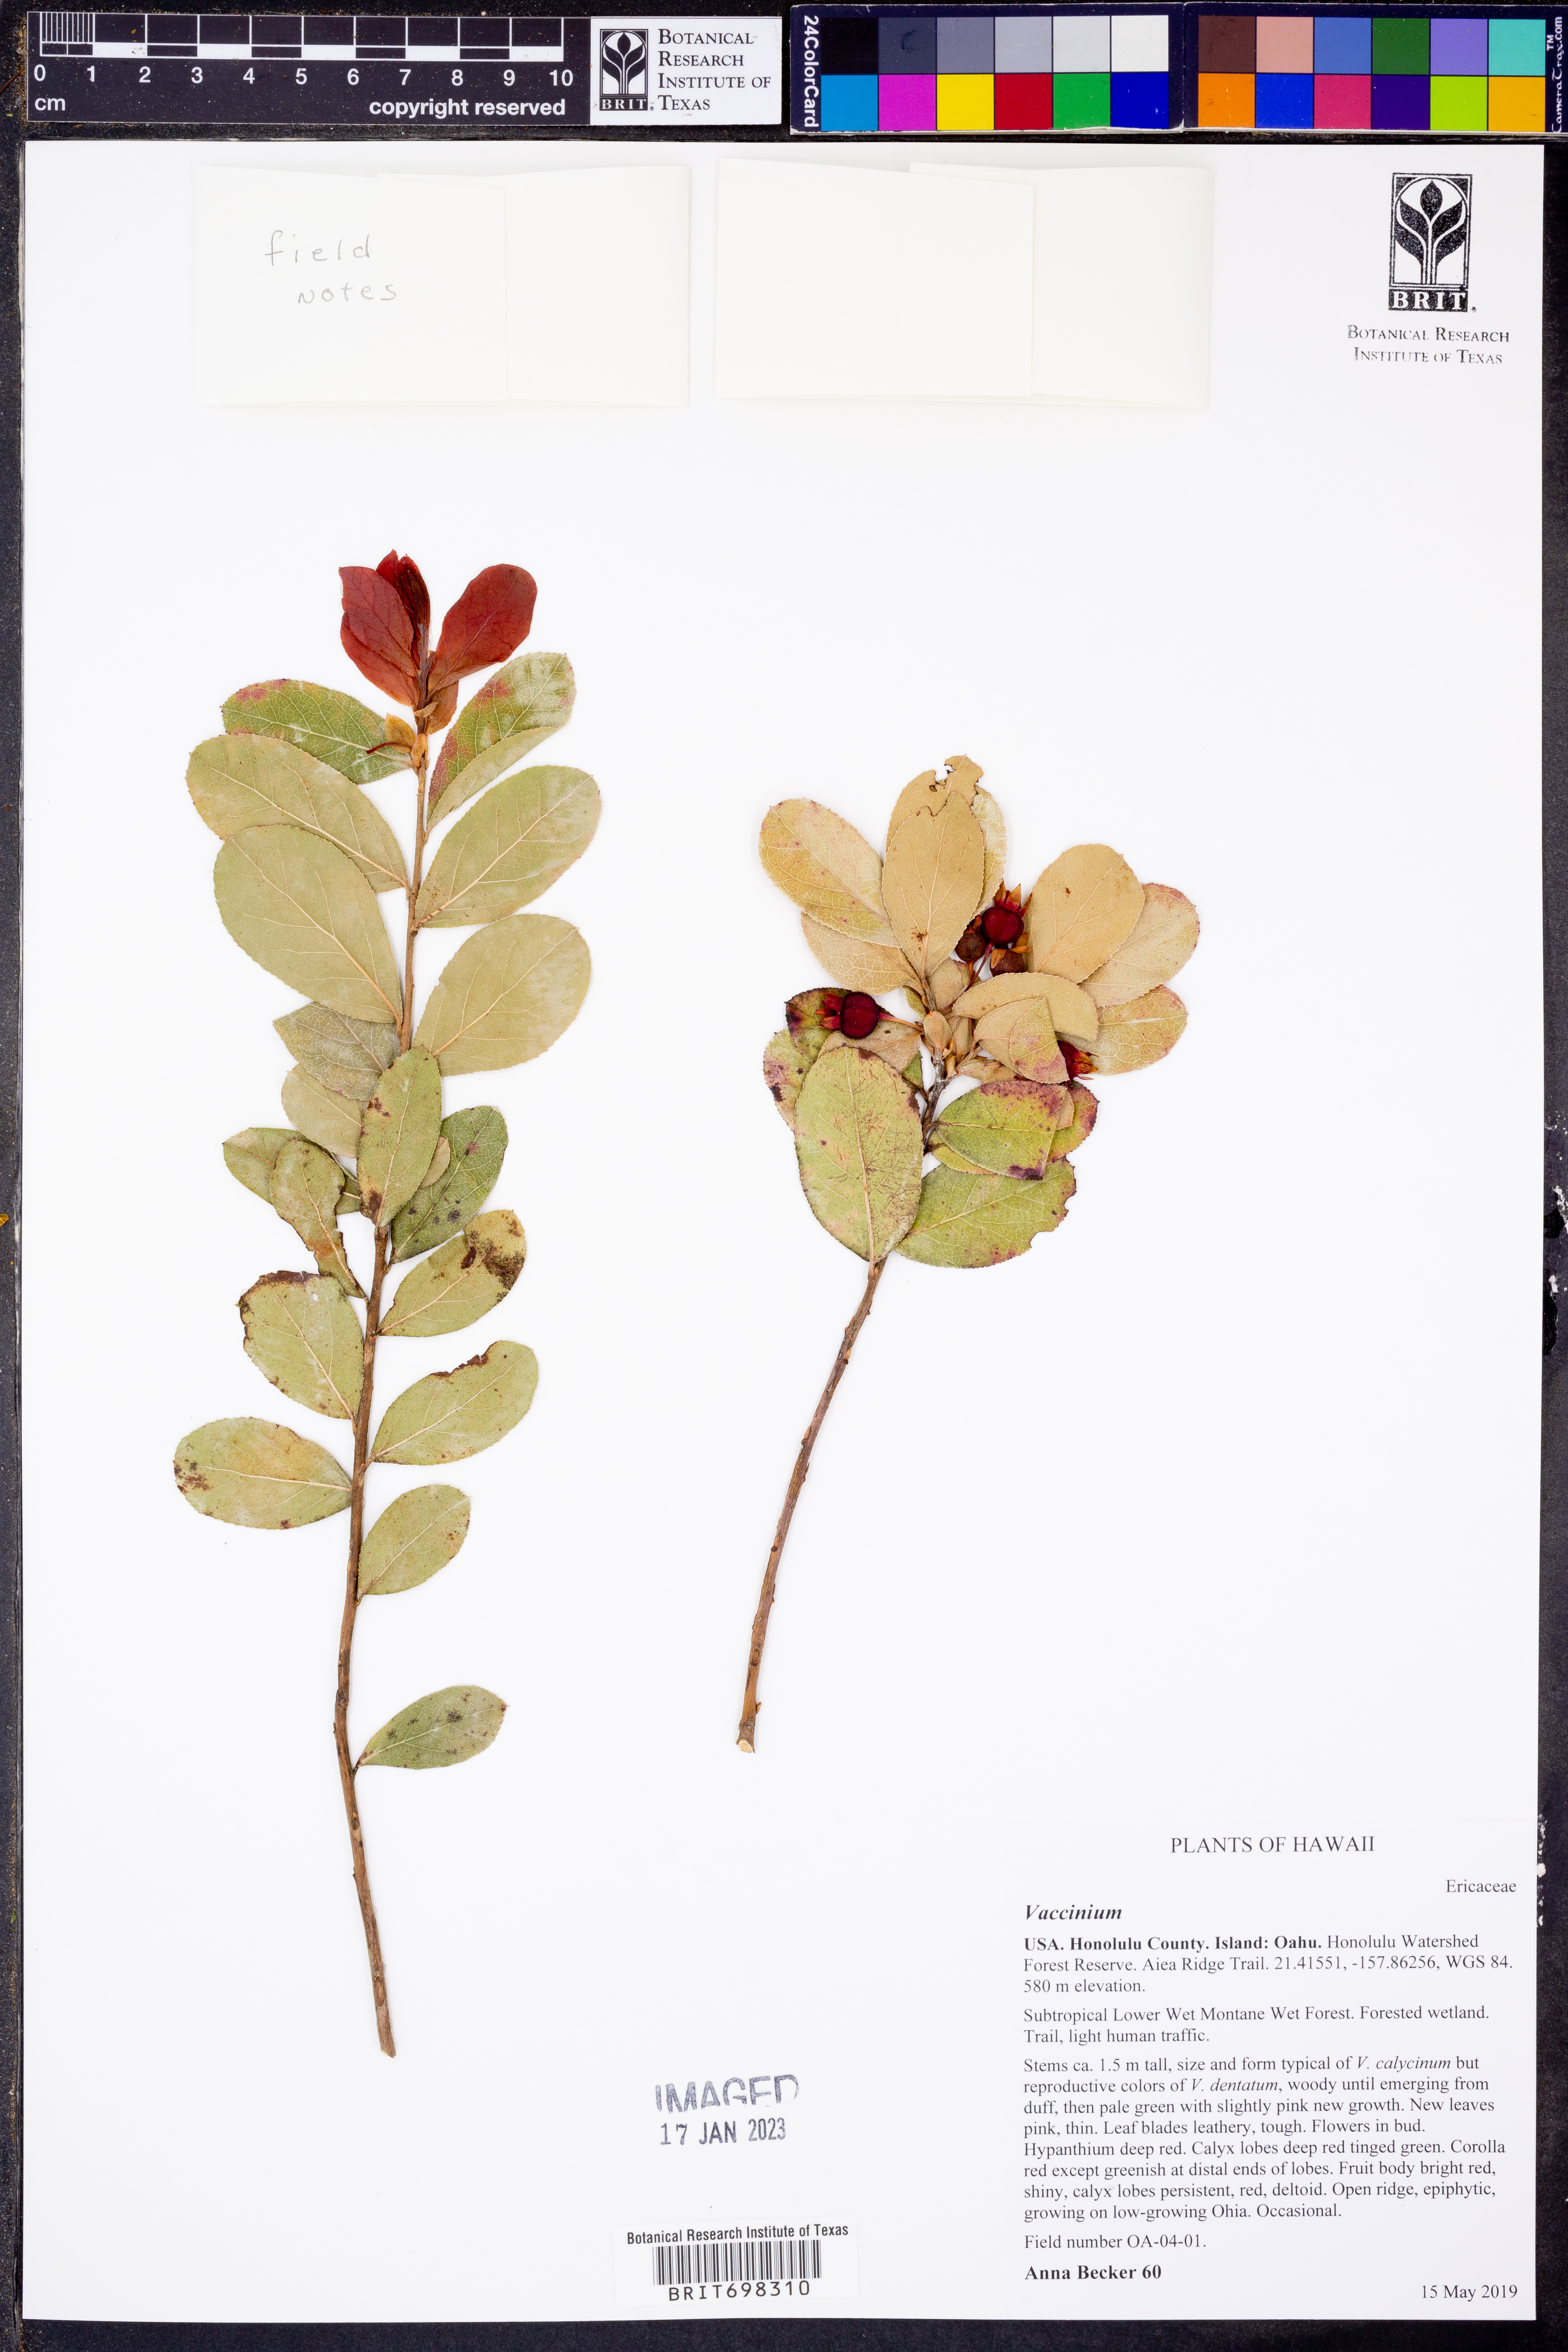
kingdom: Plantae
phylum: Tracheophyta
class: Magnoliopsida
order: Ericales
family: Ericaceae
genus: Vaccinium
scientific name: Vaccinium
